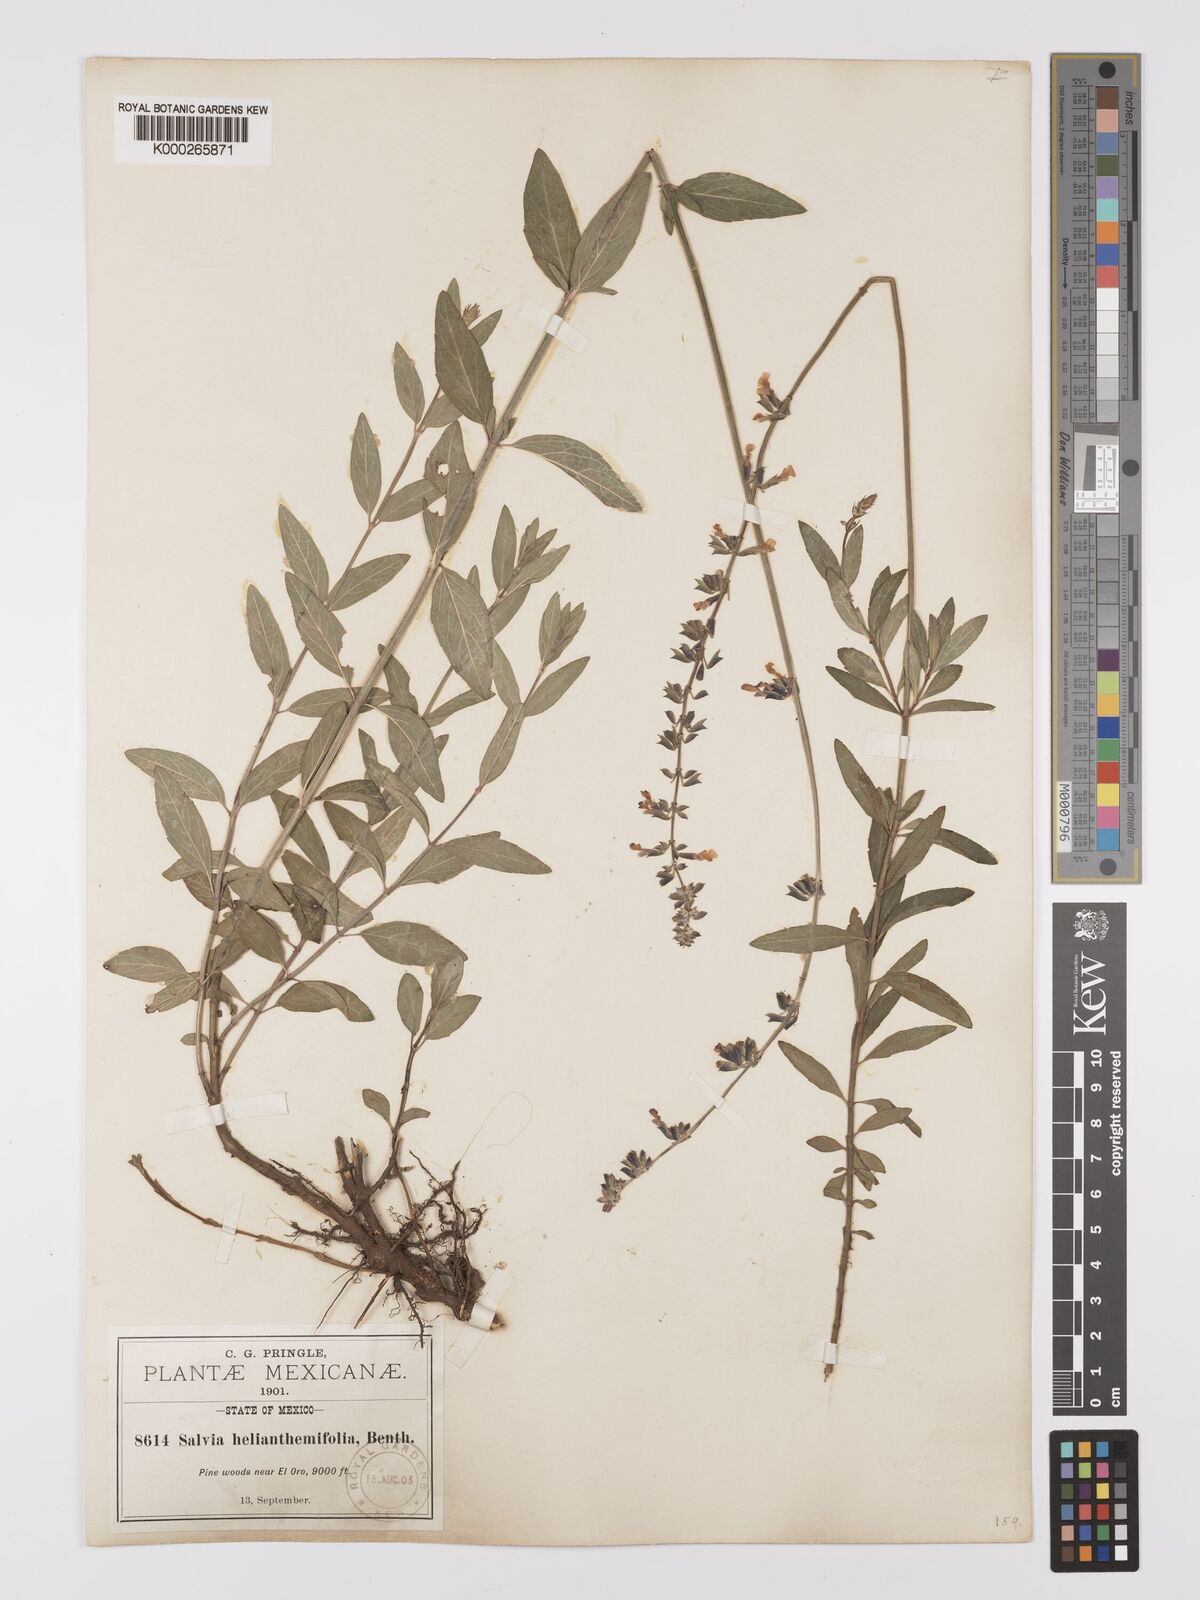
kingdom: Plantae
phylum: Tracheophyta
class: Magnoliopsida
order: Lamiales
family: Lamiaceae
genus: Salvia
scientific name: Salvia helianthemifolia
